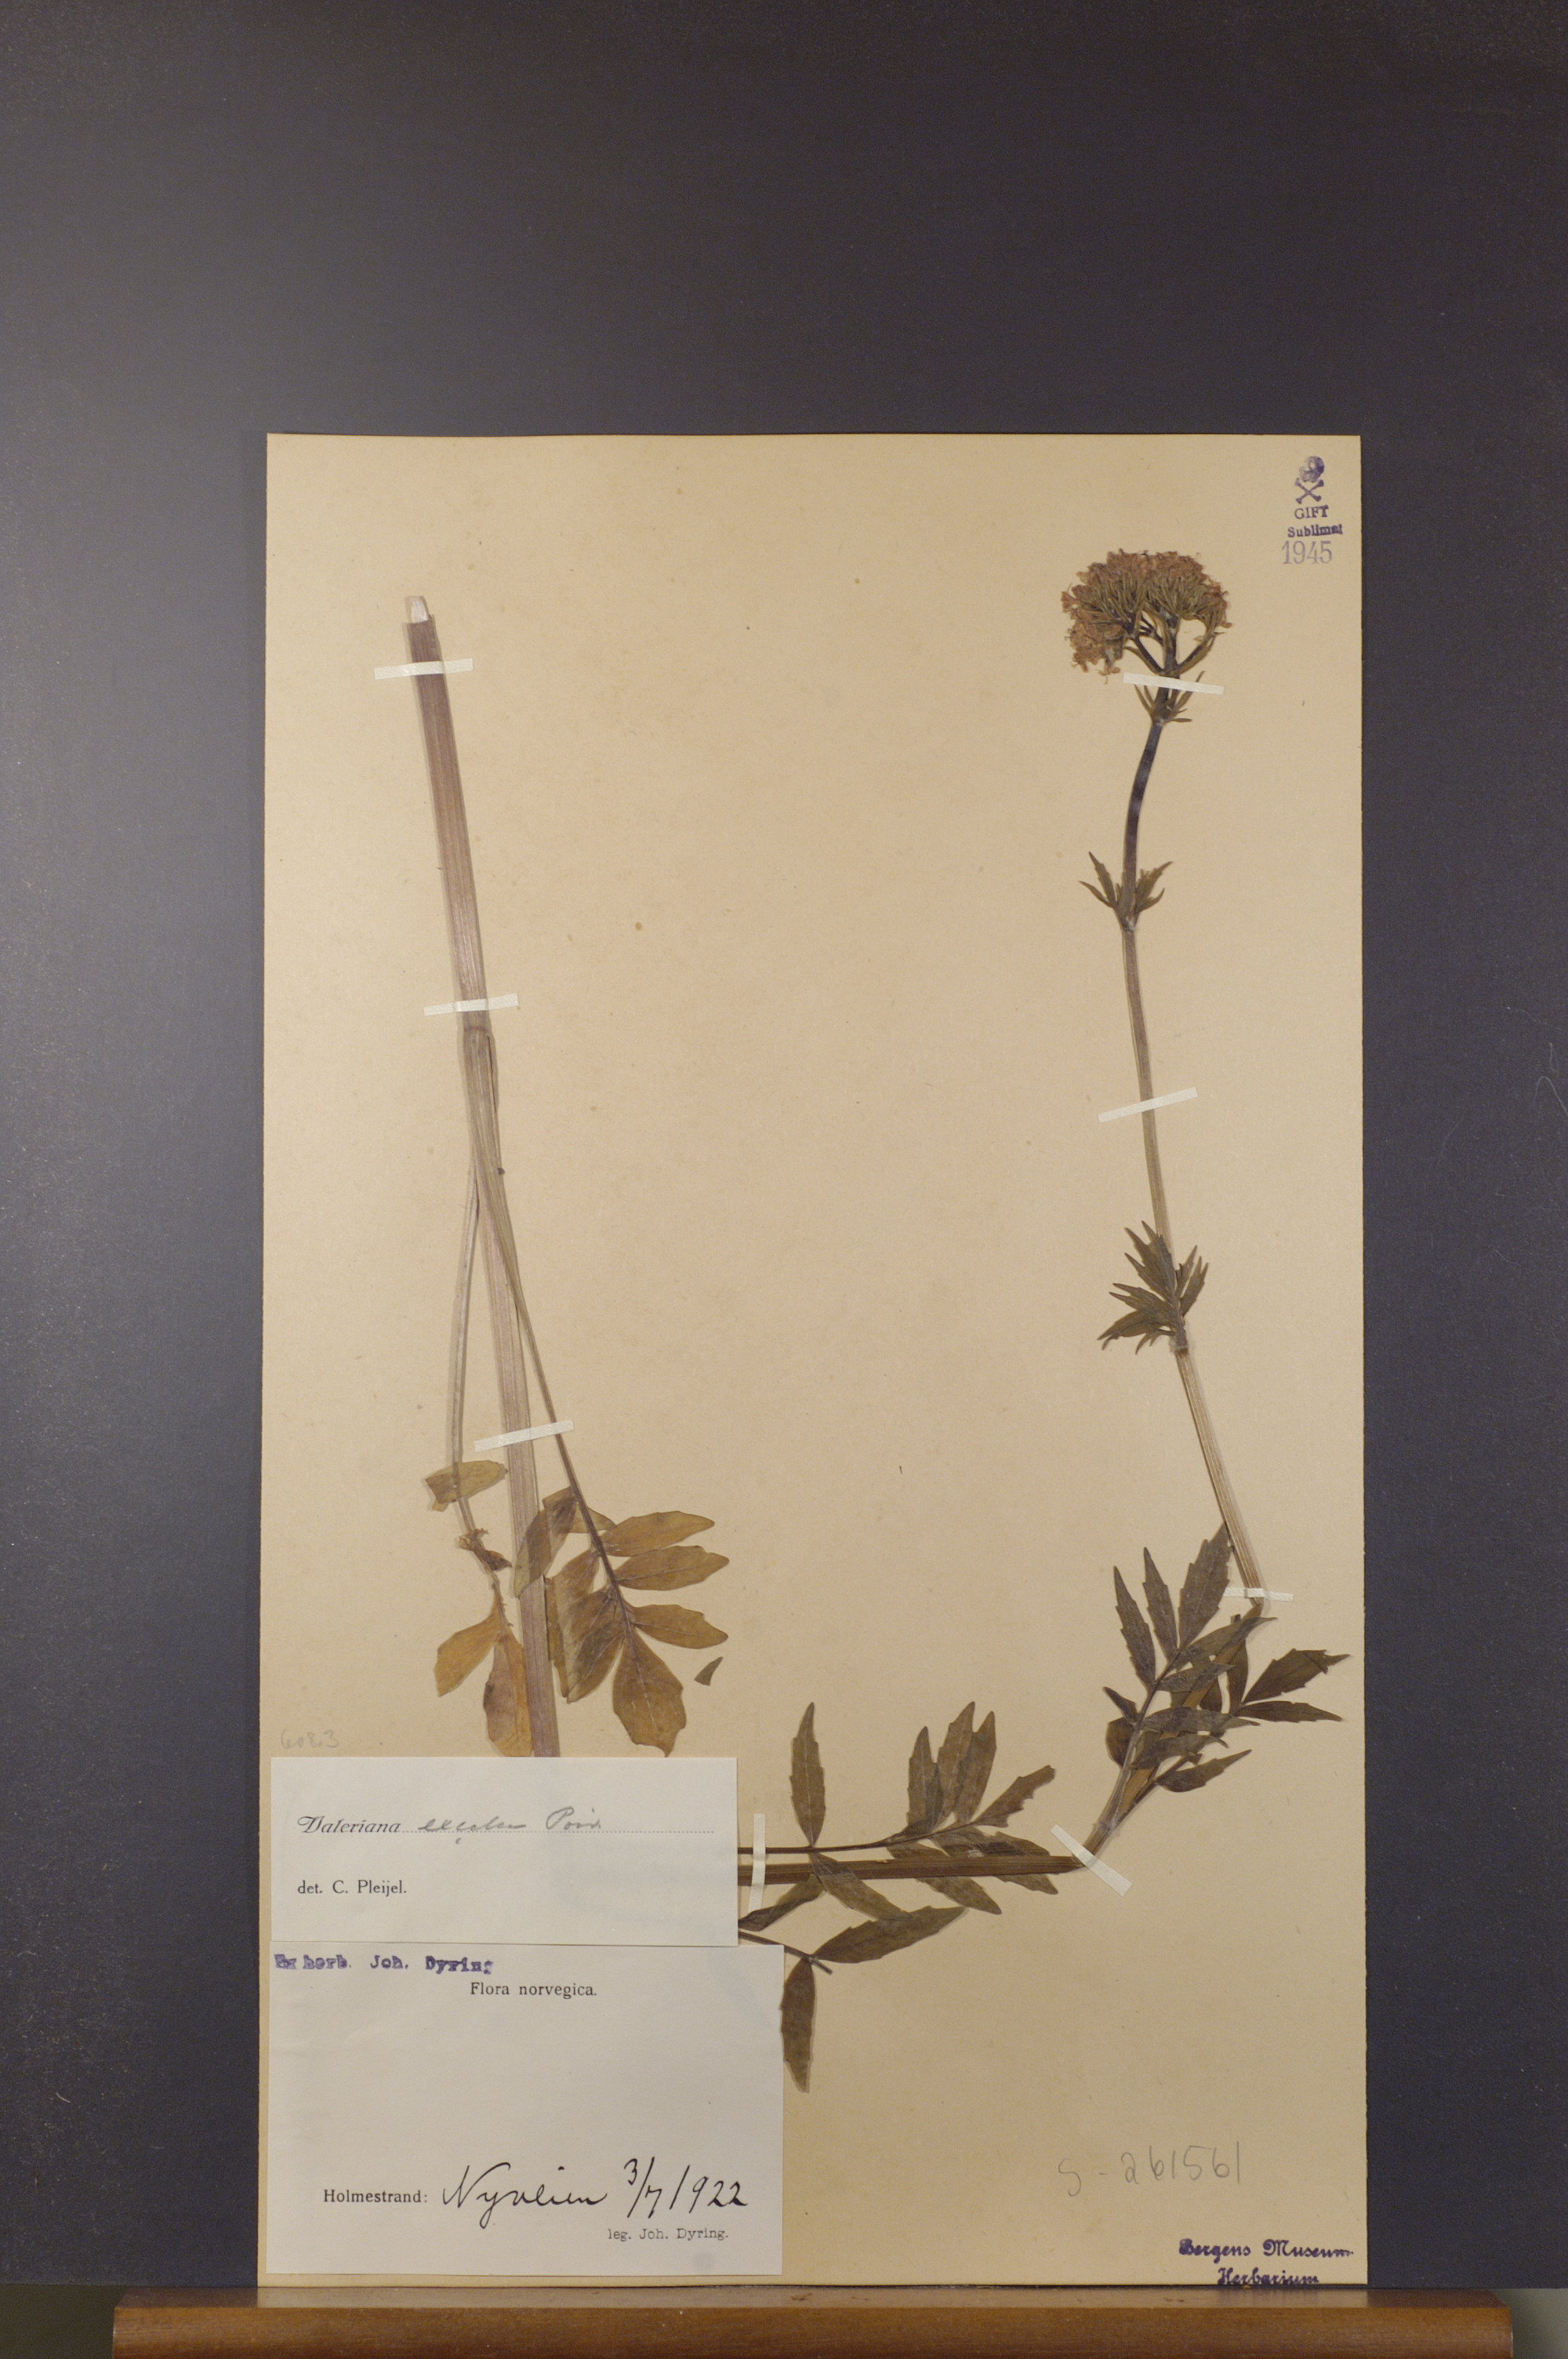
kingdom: Plantae
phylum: Tracheophyta
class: Magnoliopsida
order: Dipsacales
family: Caprifoliaceae
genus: Valeriana
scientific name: Valeriana sambucifolia
